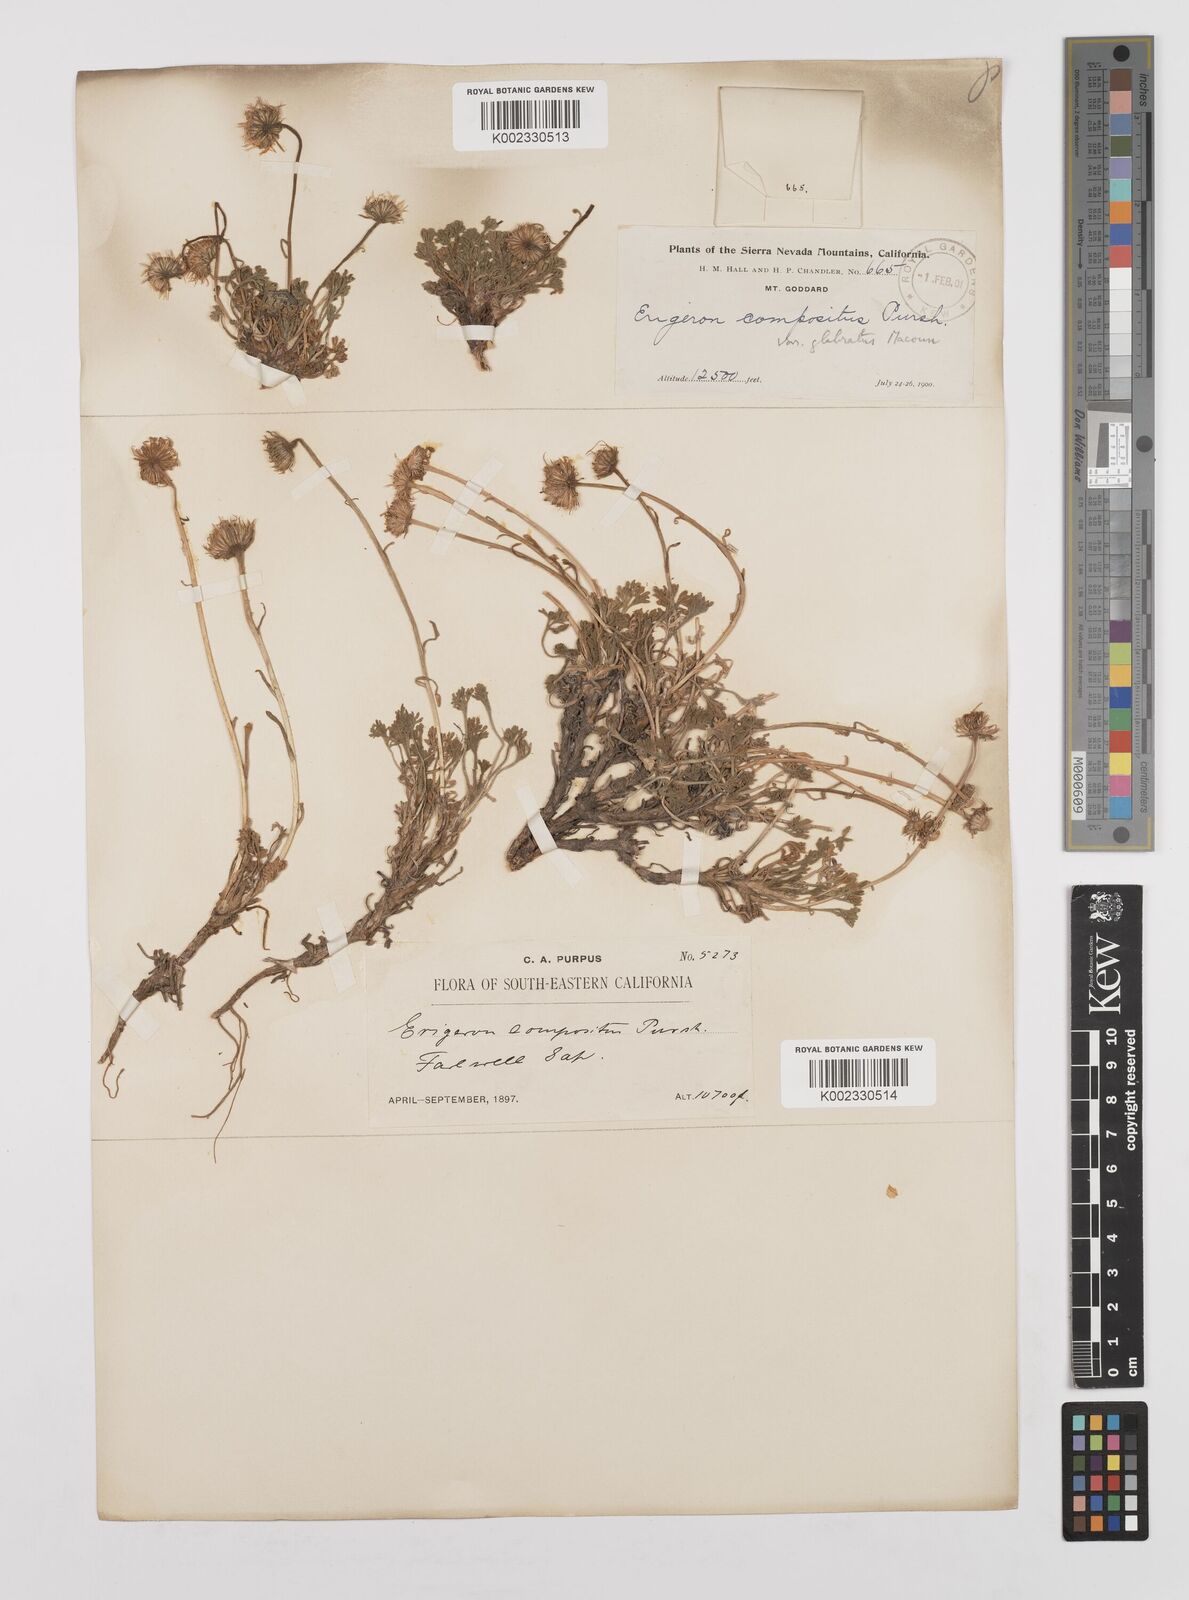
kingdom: Plantae
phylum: Tracheophyta
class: Magnoliopsida
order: Asterales
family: Asteraceae
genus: Erigeron
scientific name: Erigeron compositus
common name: Dwarf mountain fleabane
